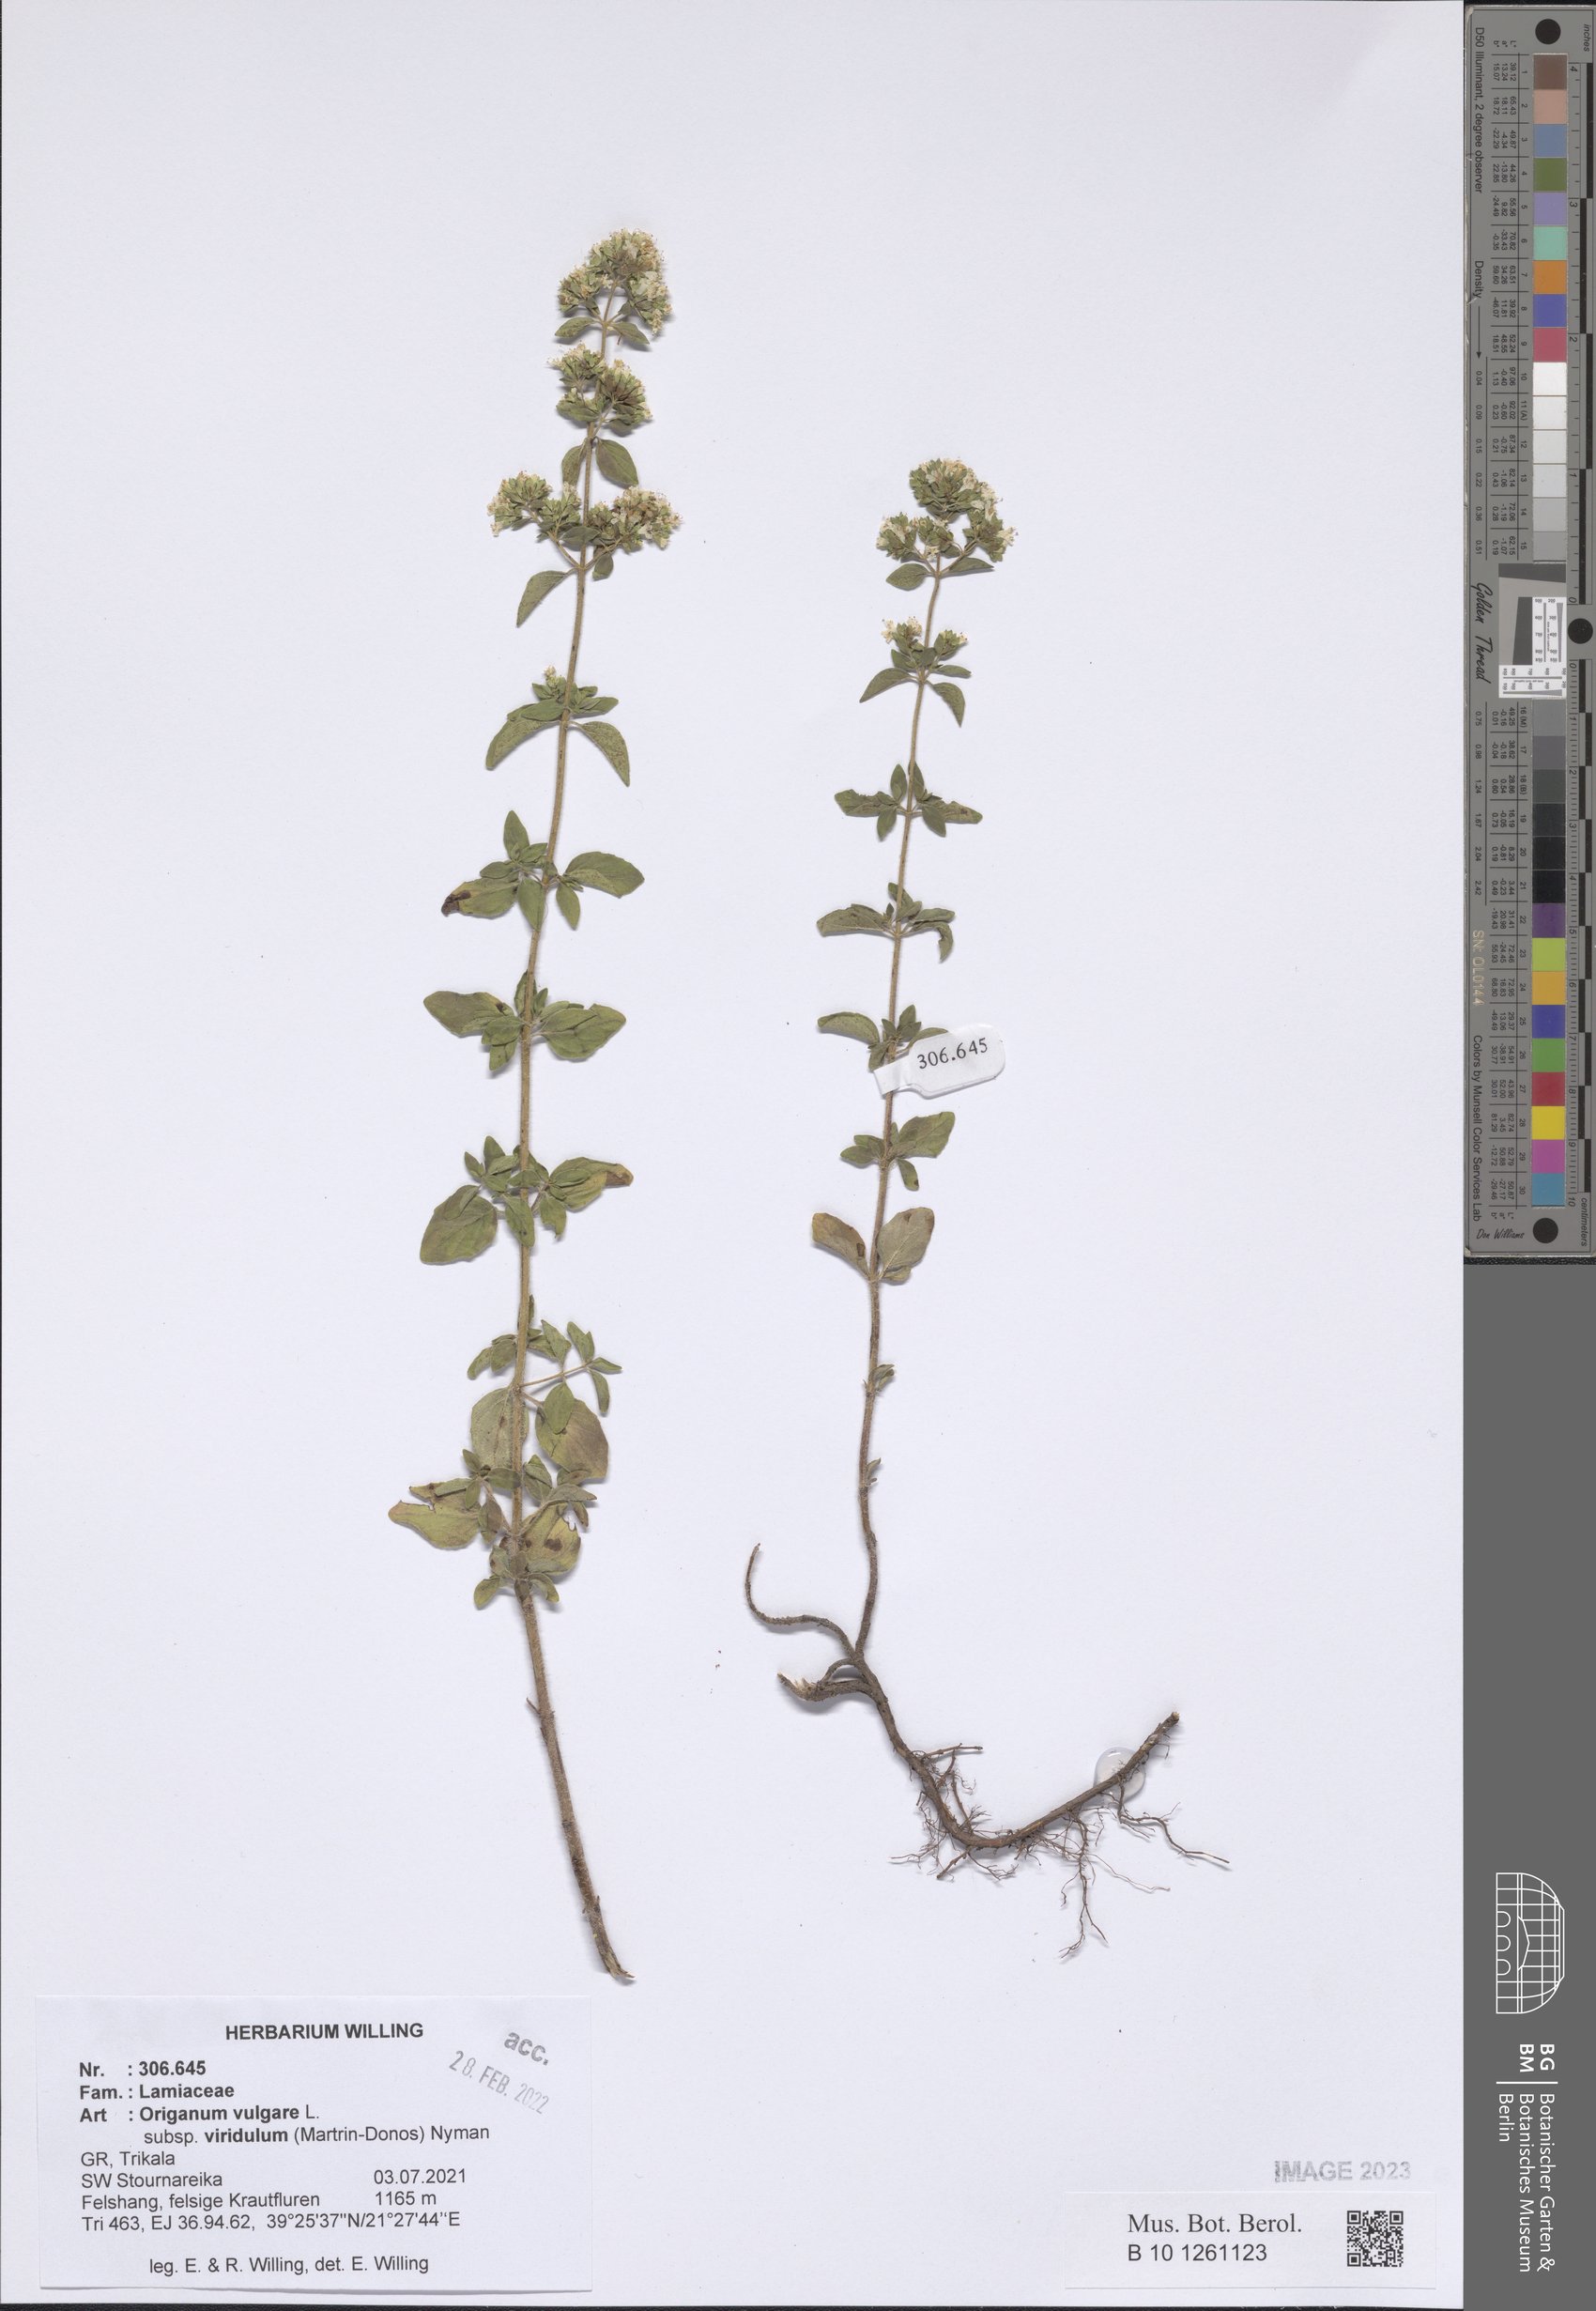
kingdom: Plantae
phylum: Tracheophyta
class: Magnoliopsida
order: Lamiales
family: Lamiaceae
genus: Origanum
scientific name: Origanum vulgare
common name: Wild marjoram
